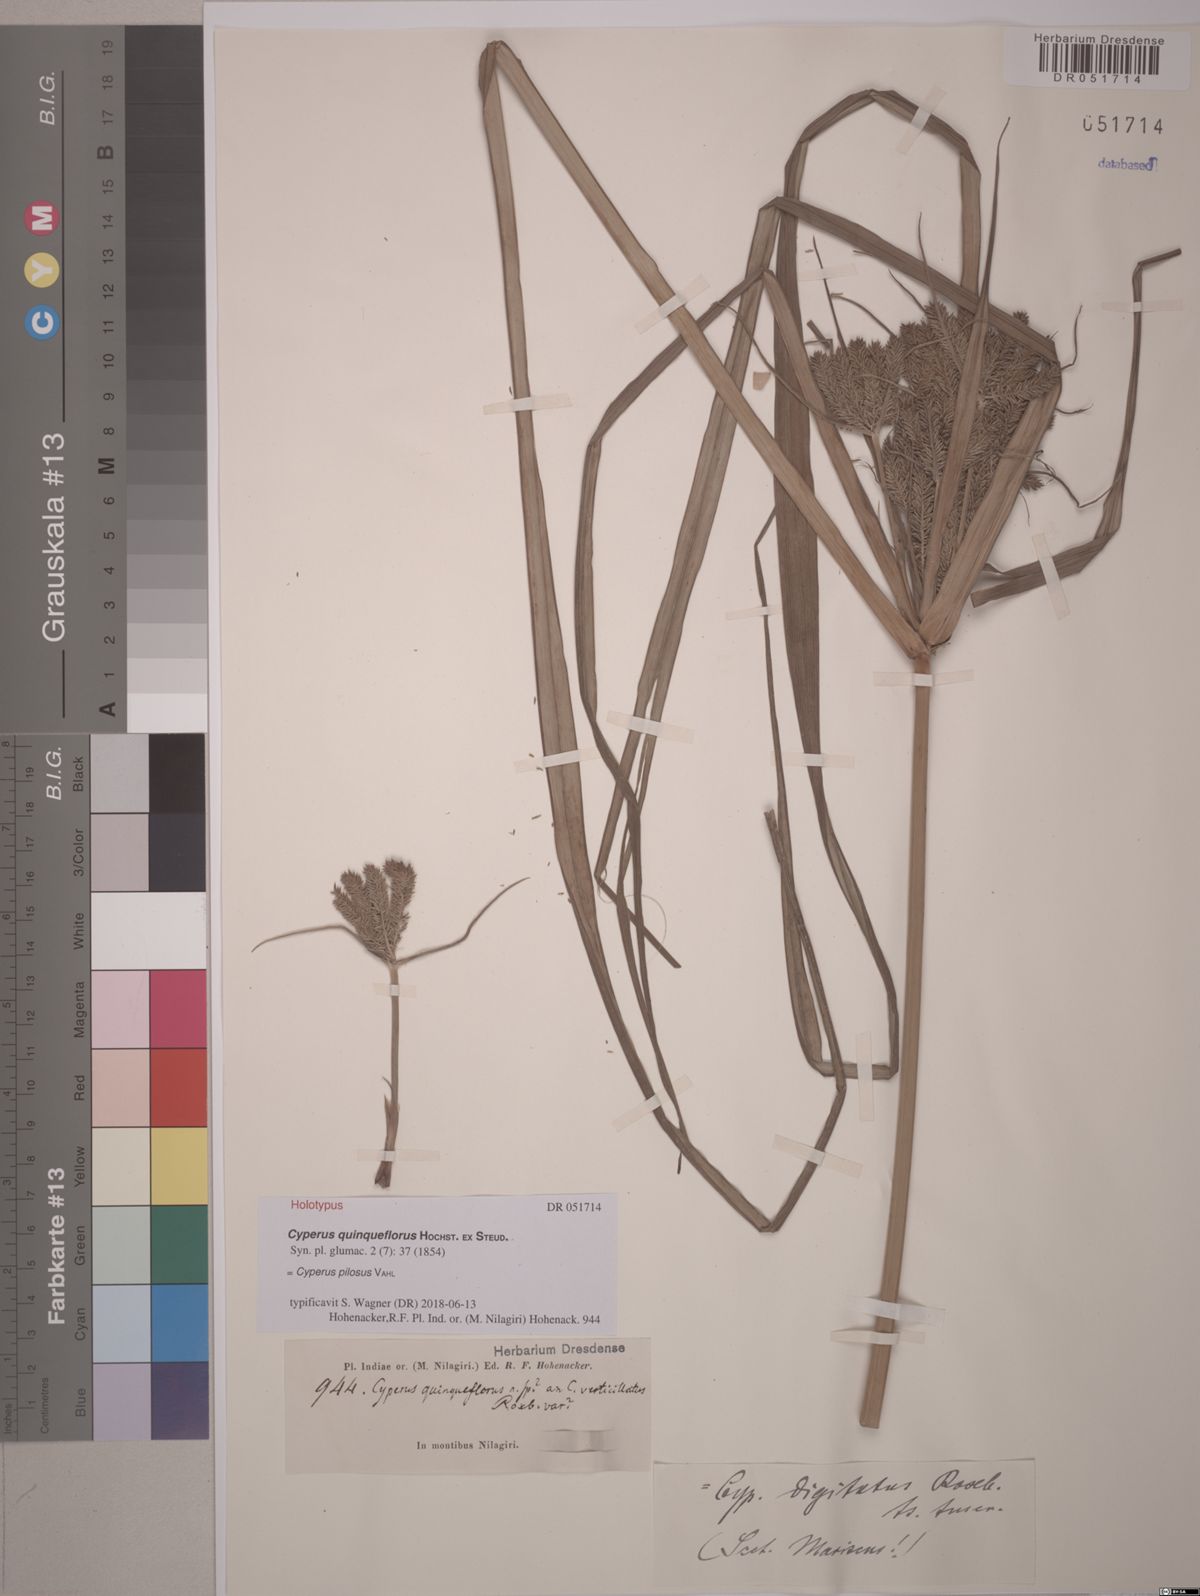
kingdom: Plantae
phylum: Tracheophyta
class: Liliopsida
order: Poales
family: Cyperaceae
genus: Cyperus
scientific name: Cyperus pilosus
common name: Fuzzy flatsedge
